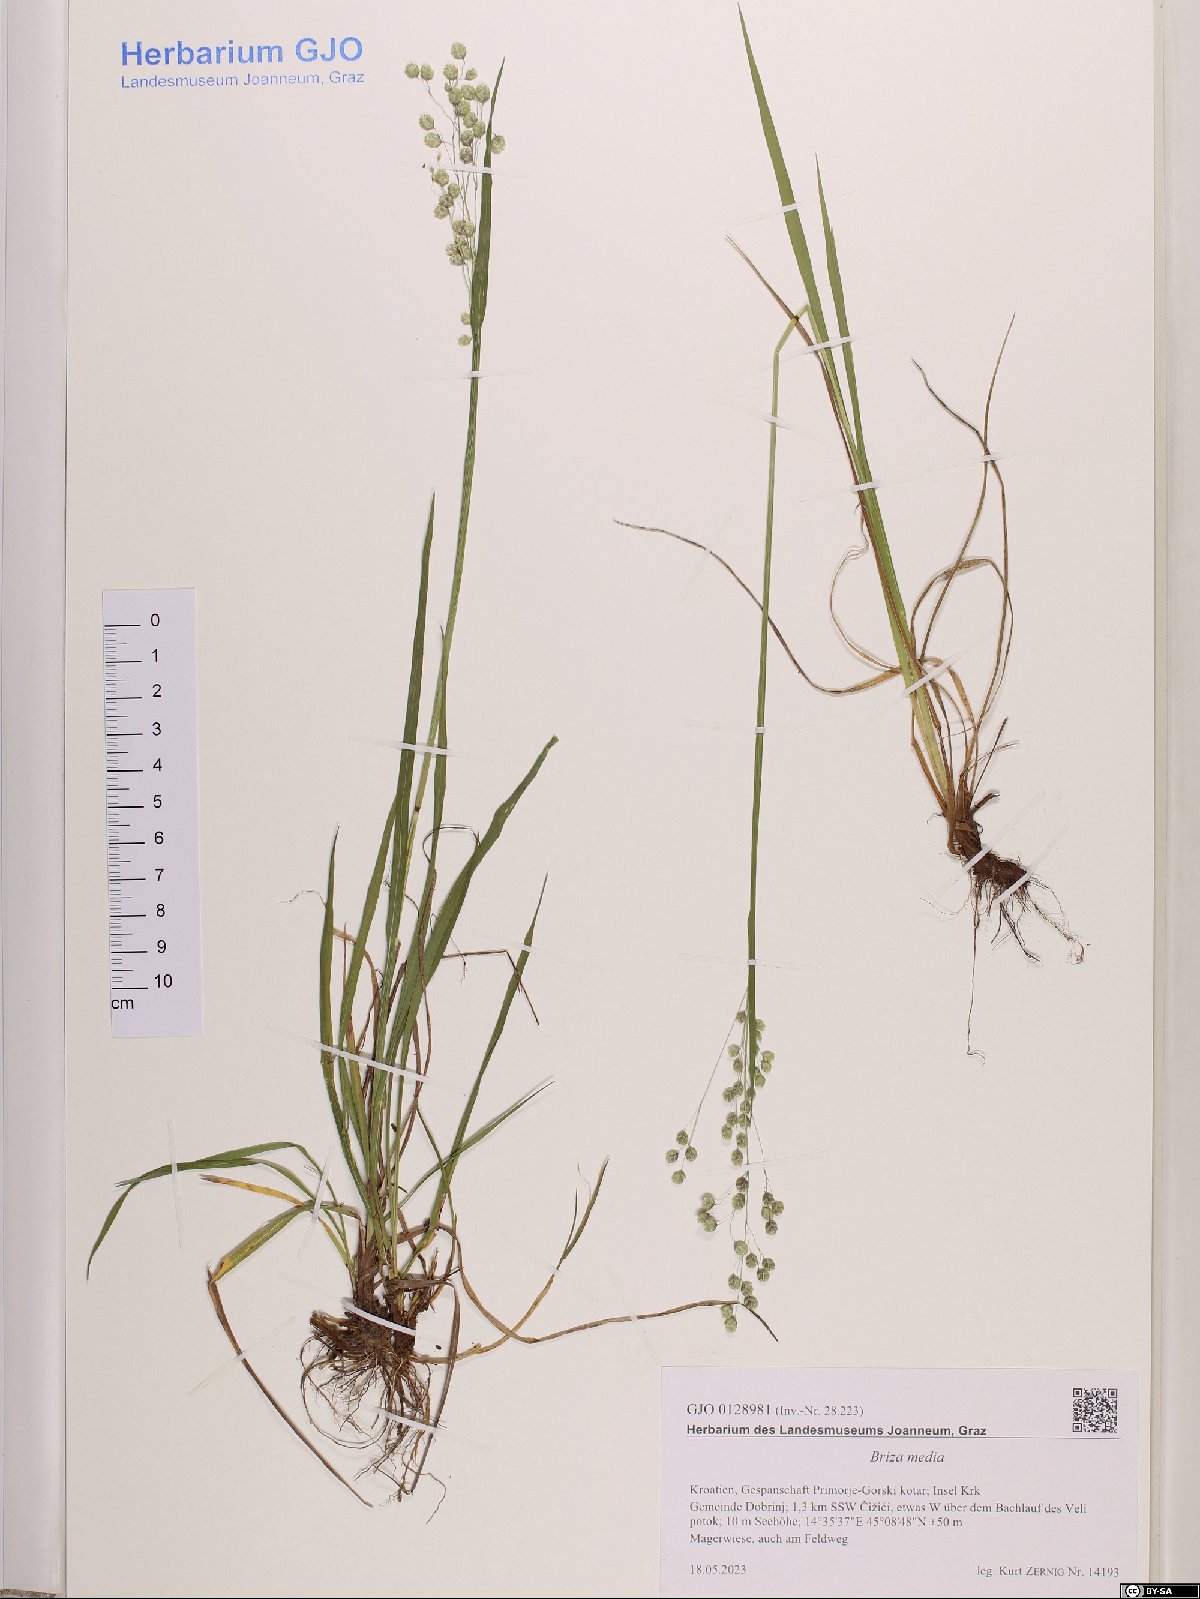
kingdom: Plantae
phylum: Tracheophyta
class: Liliopsida
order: Poales
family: Poaceae
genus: Briza
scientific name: Briza media
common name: Quaking grass
